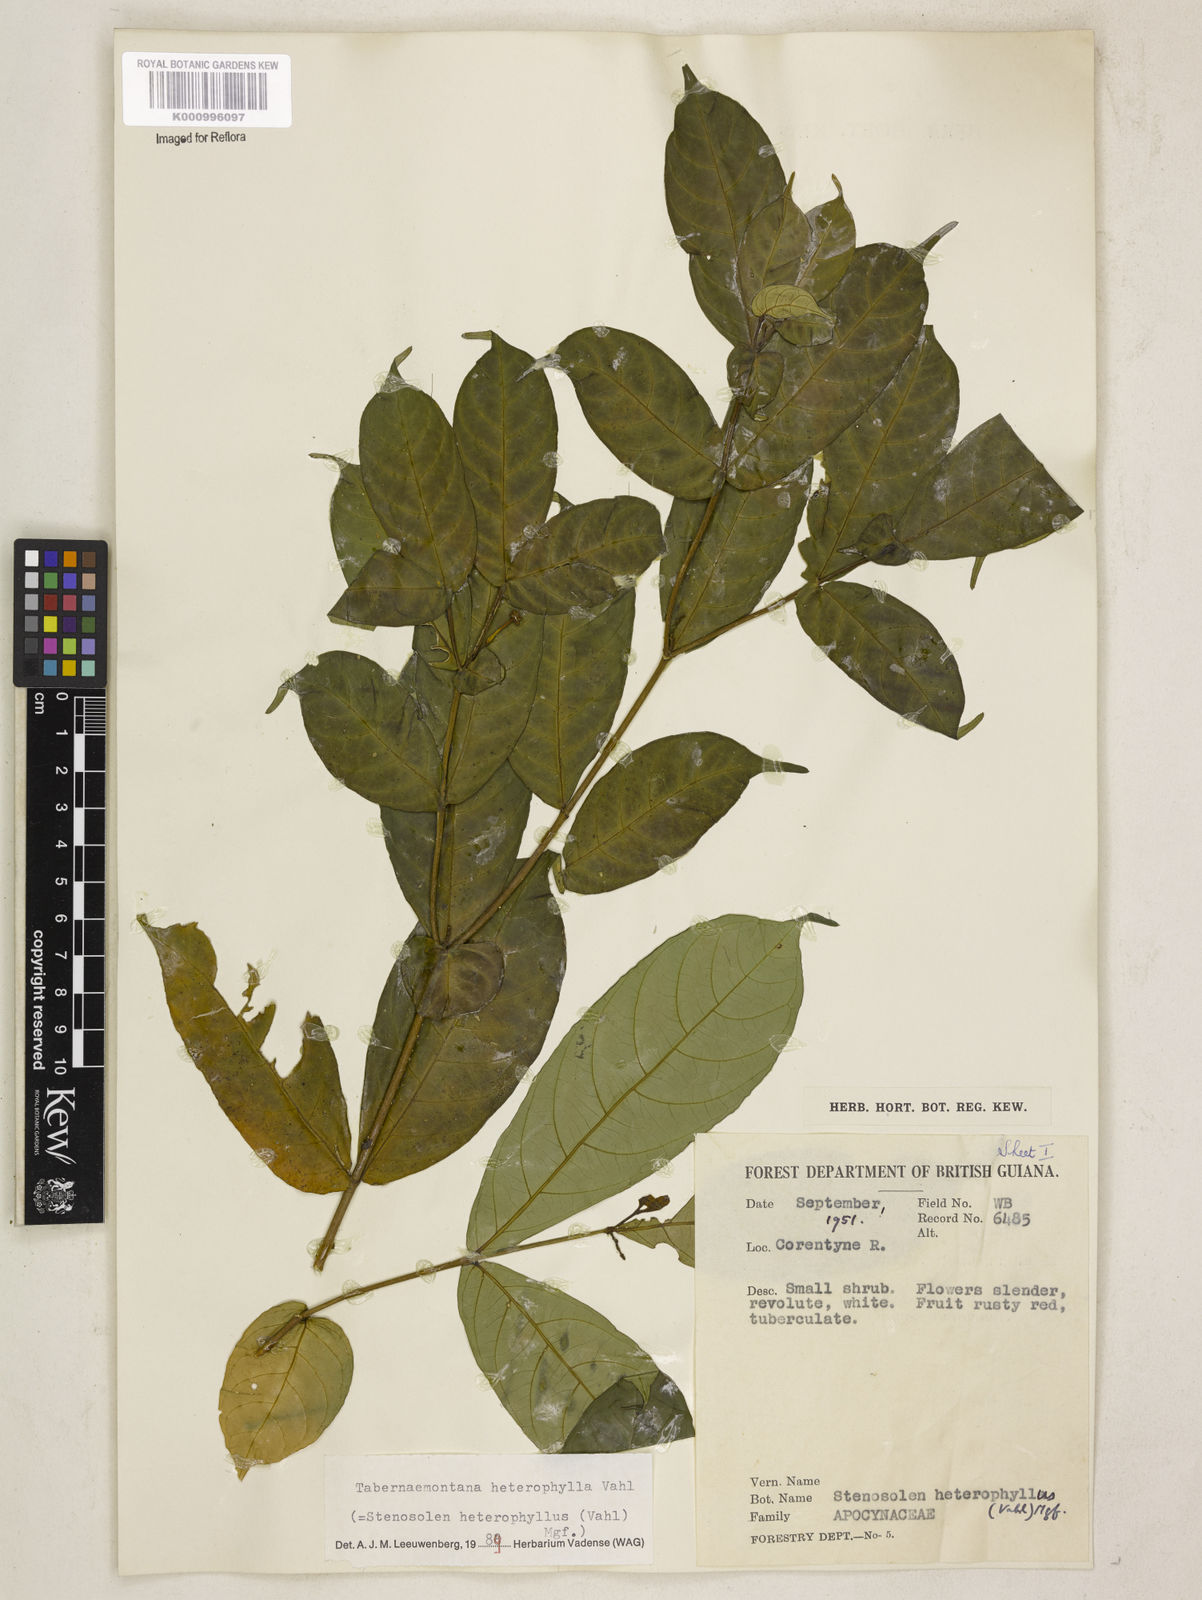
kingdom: Plantae
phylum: Tracheophyta
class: Magnoliopsida
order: Gentianales
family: Apocynaceae
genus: Tabernaemontana
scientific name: Tabernaemontana heterophylla
